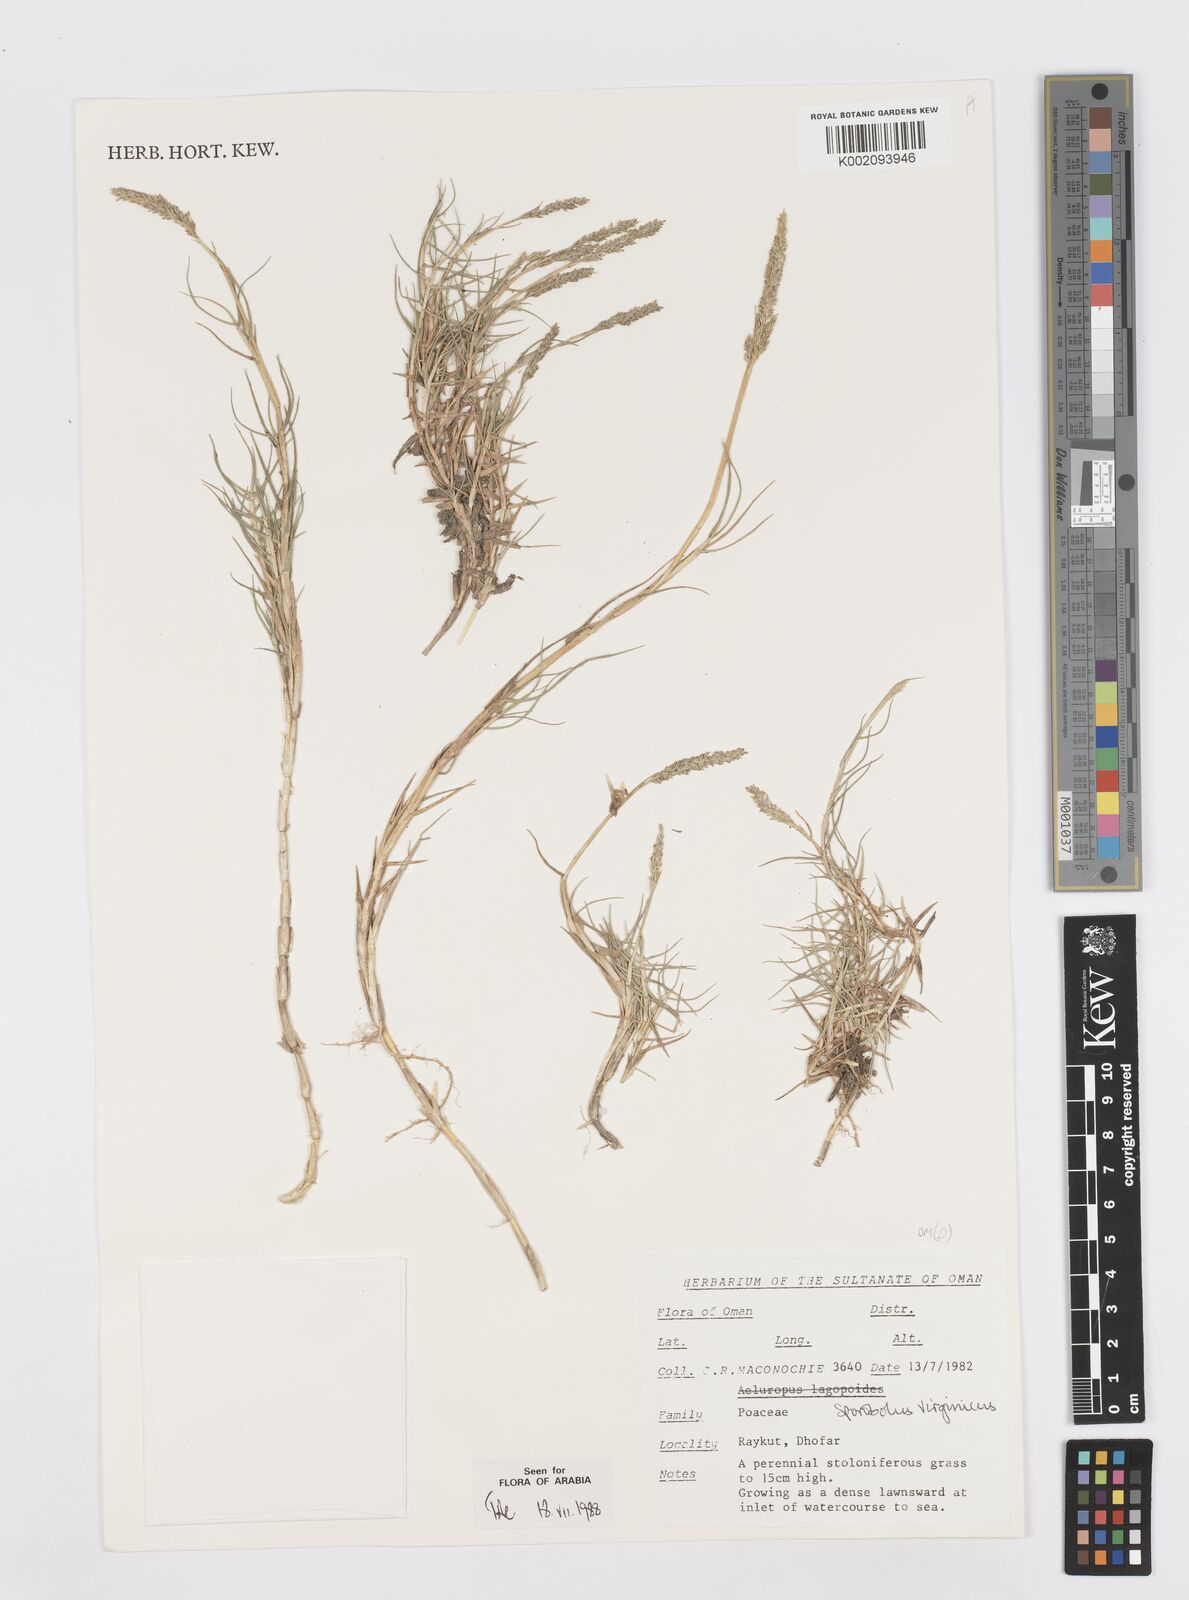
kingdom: Plantae
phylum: Tracheophyta
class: Liliopsida
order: Poales
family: Poaceae
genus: Sporobolus
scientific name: Sporobolus virginicus
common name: Beach dropseed
